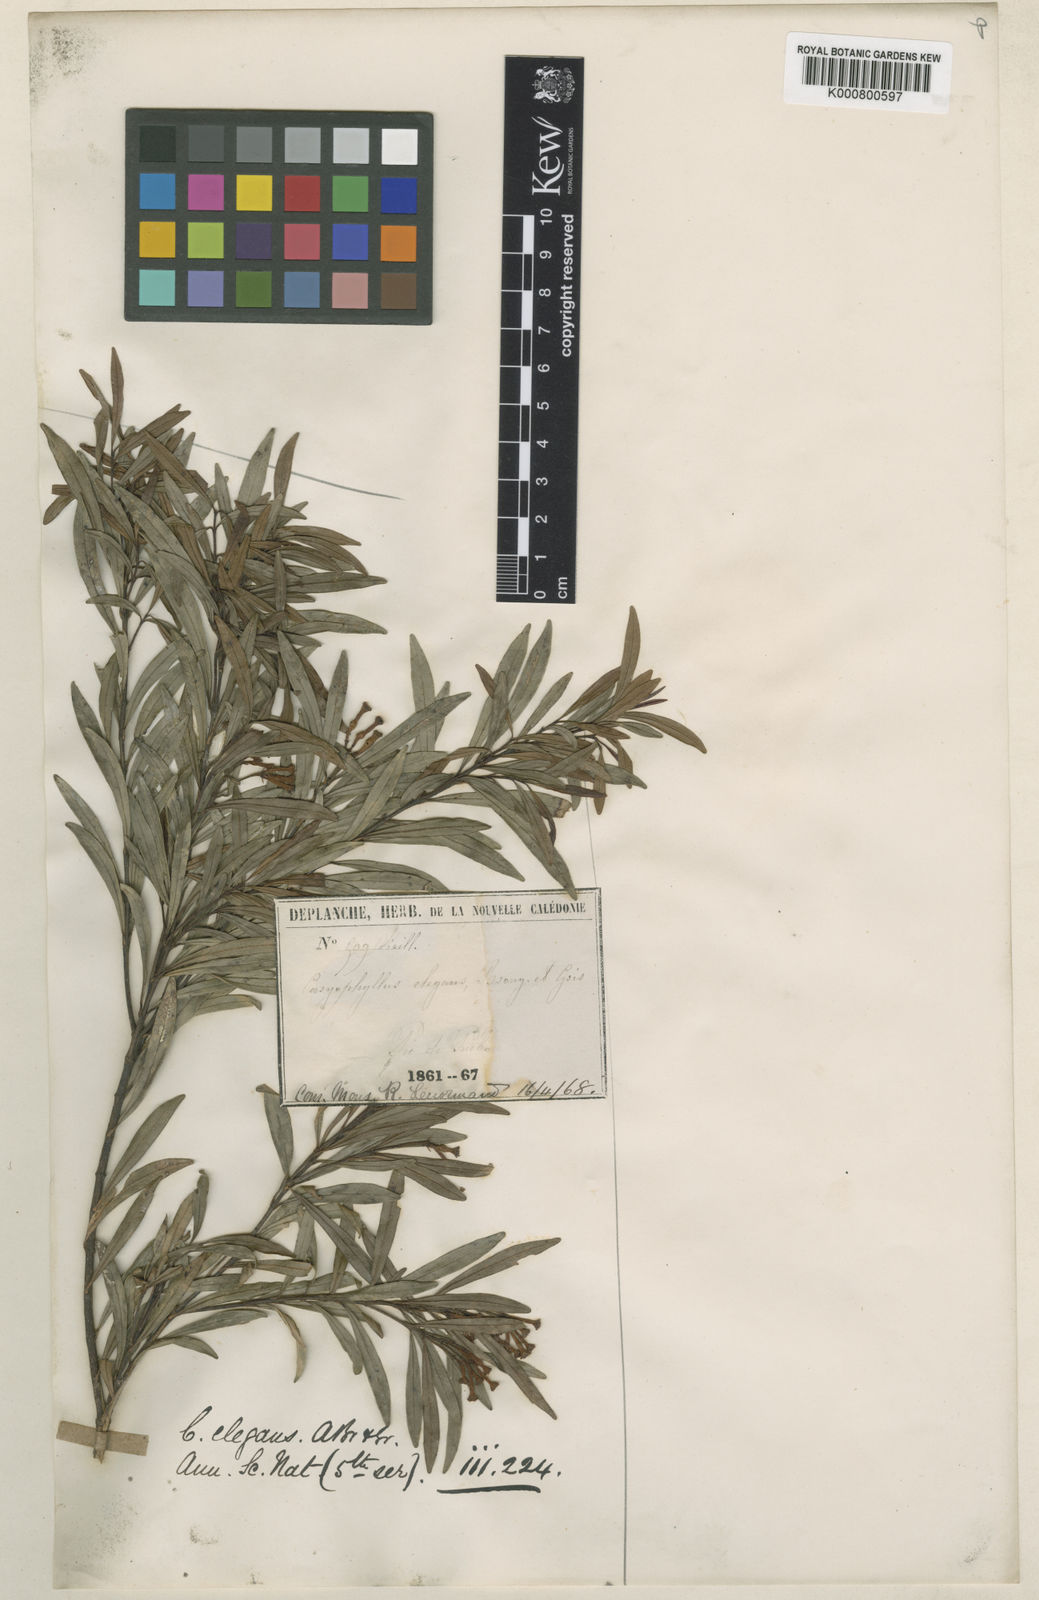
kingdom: Plantae
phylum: Tracheophyta
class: Magnoliopsida
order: Myrtales
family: Myrtaceae
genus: Syzygium
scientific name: Syzygium elegans
